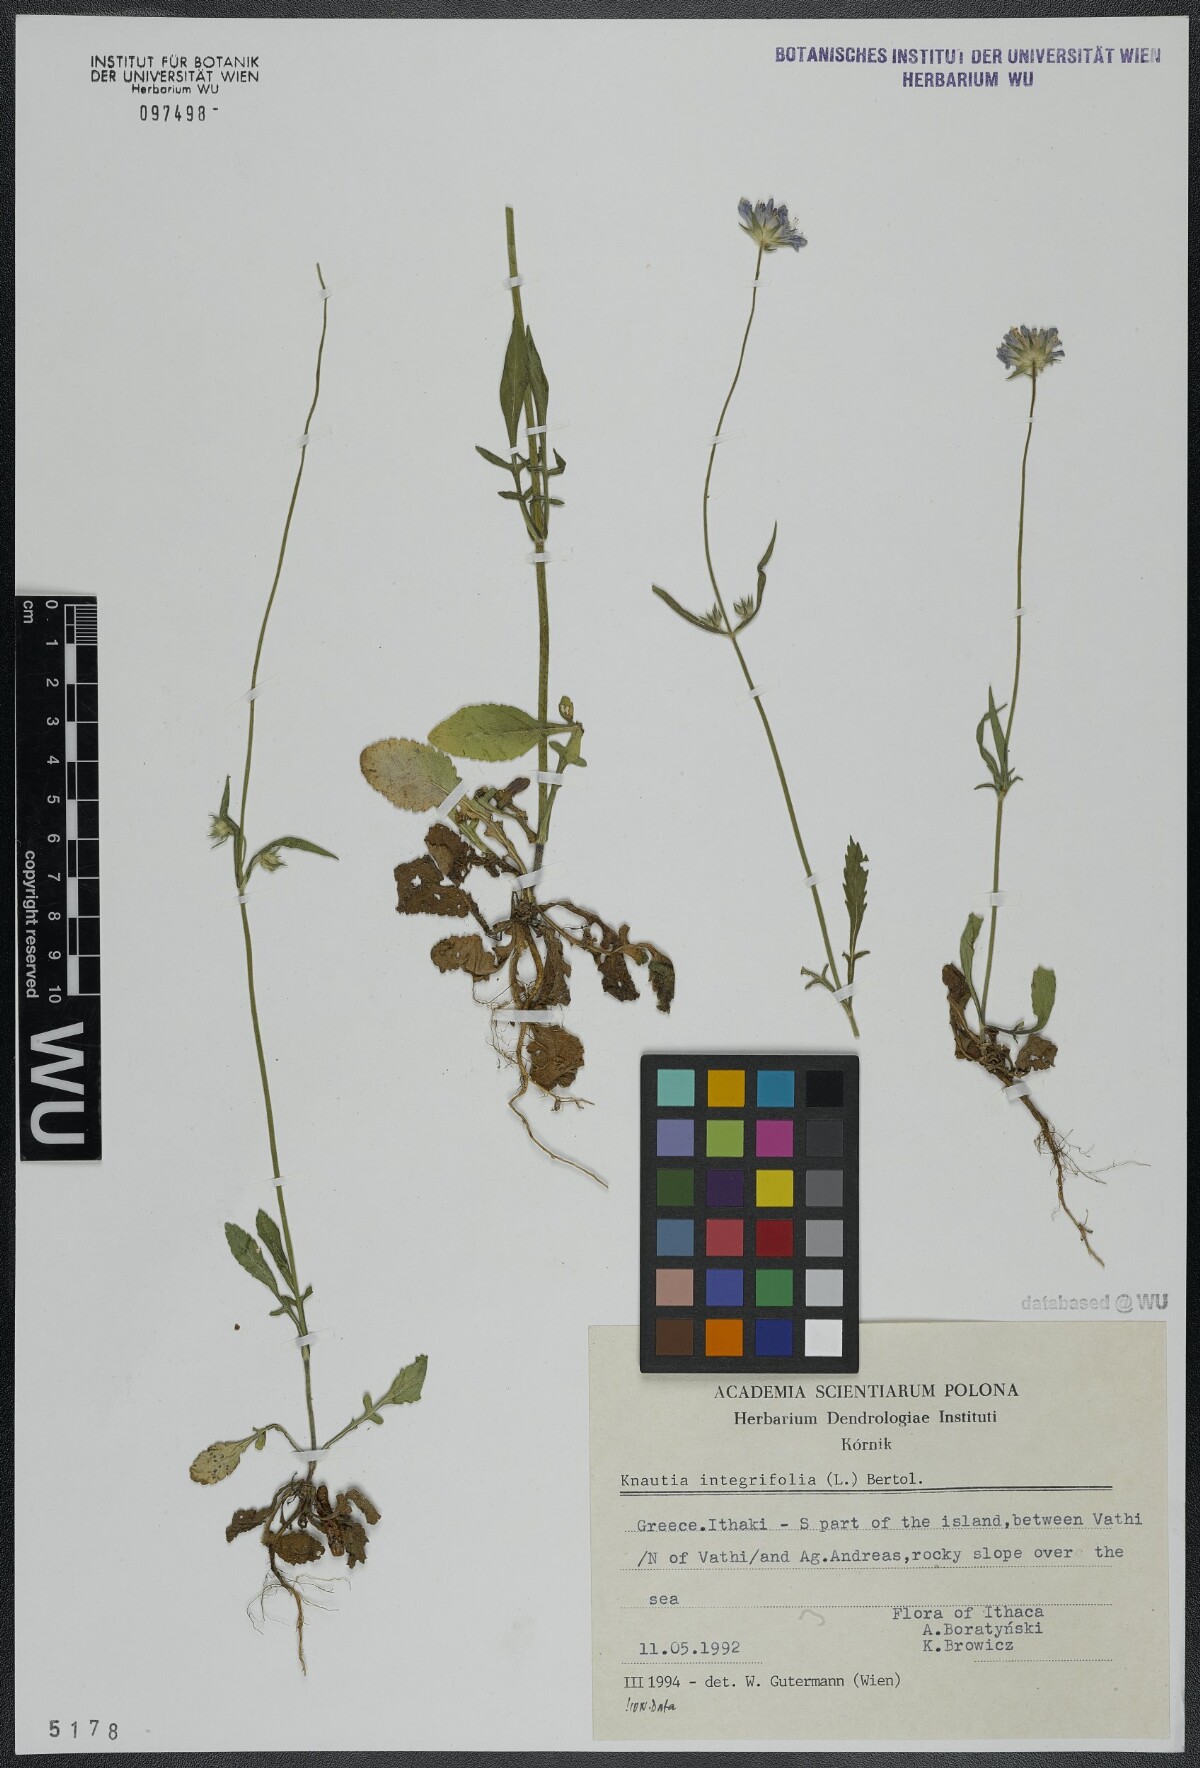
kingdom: Plantae
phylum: Tracheophyta
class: Magnoliopsida
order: Dipsacales
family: Caprifoliaceae
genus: Knautia
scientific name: Knautia integrifolia
